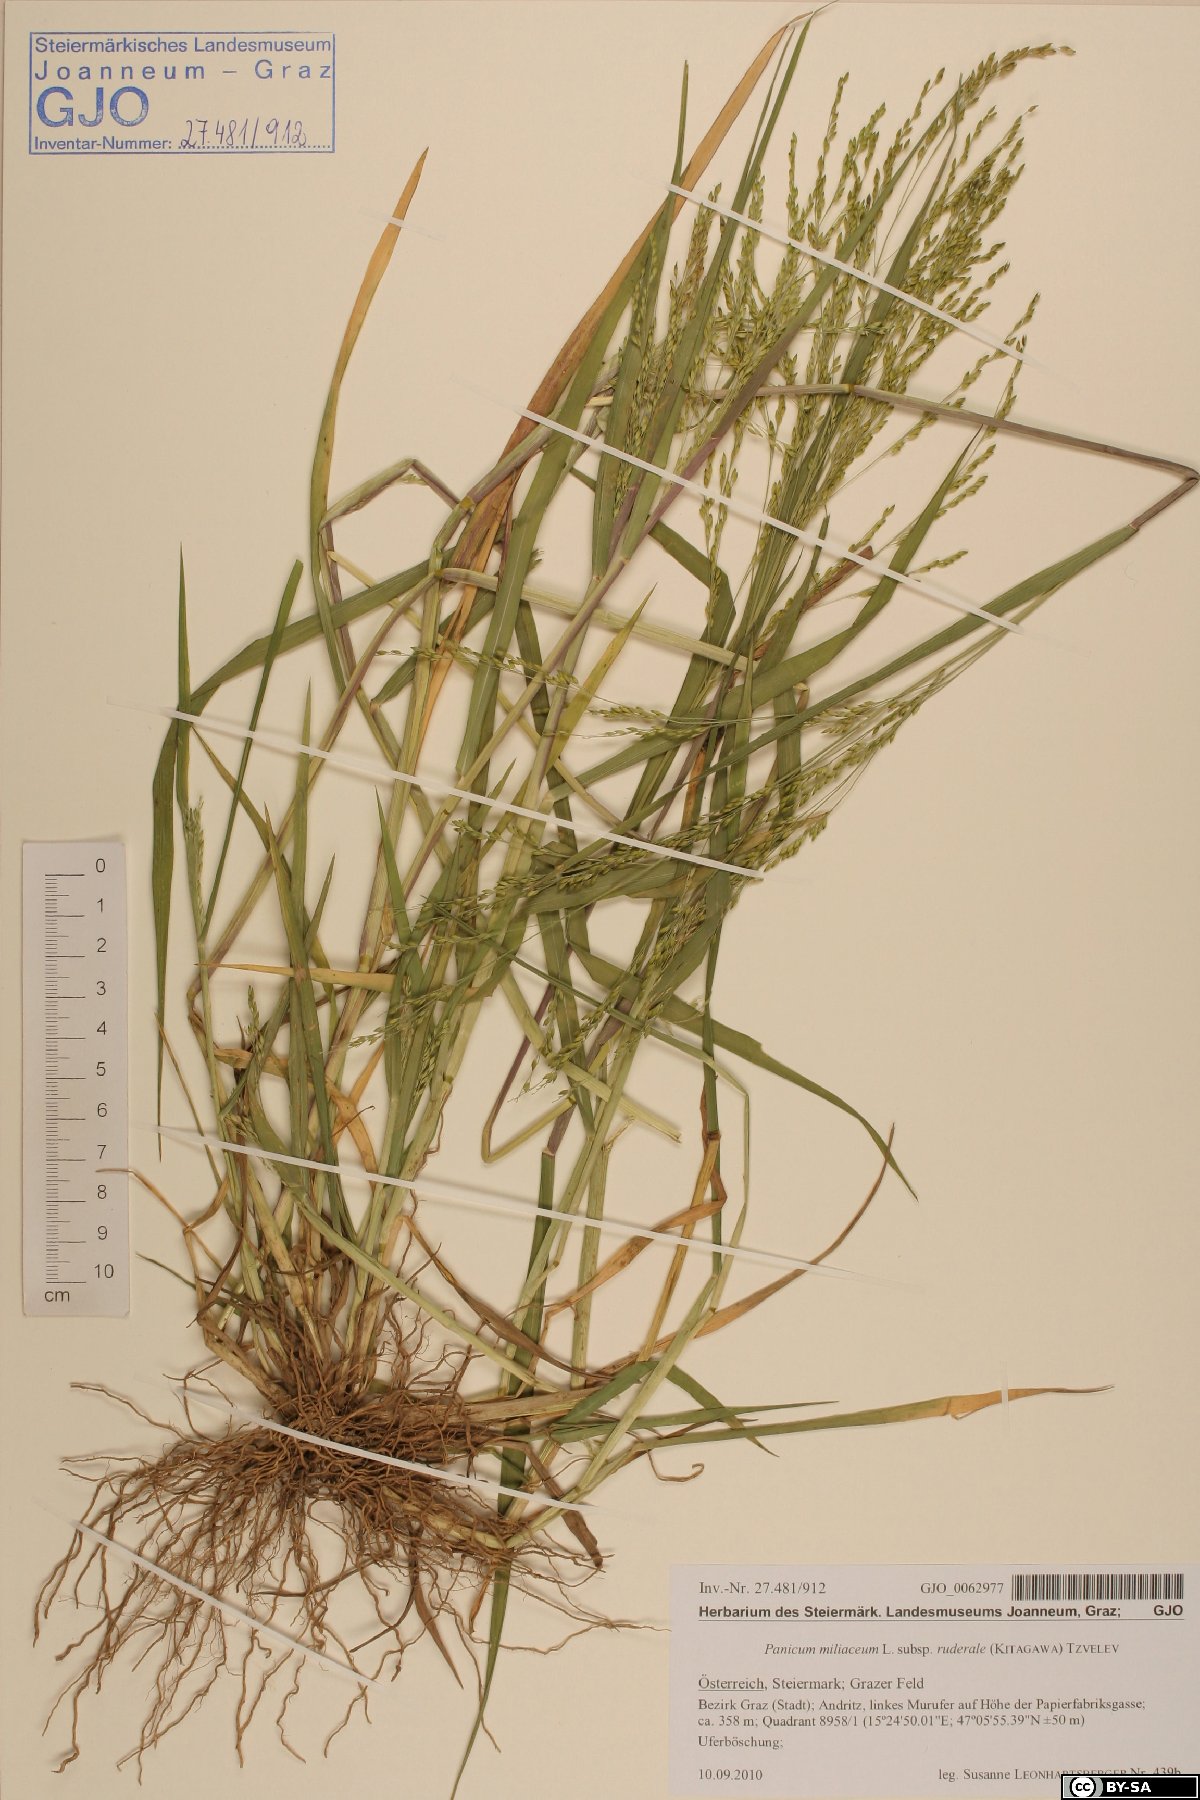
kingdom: Plantae
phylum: Tracheophyta
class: Liliopsida
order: Poales
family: Poaceae
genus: Panicum
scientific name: Panicum dichotomiflorum
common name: Autumn millet
